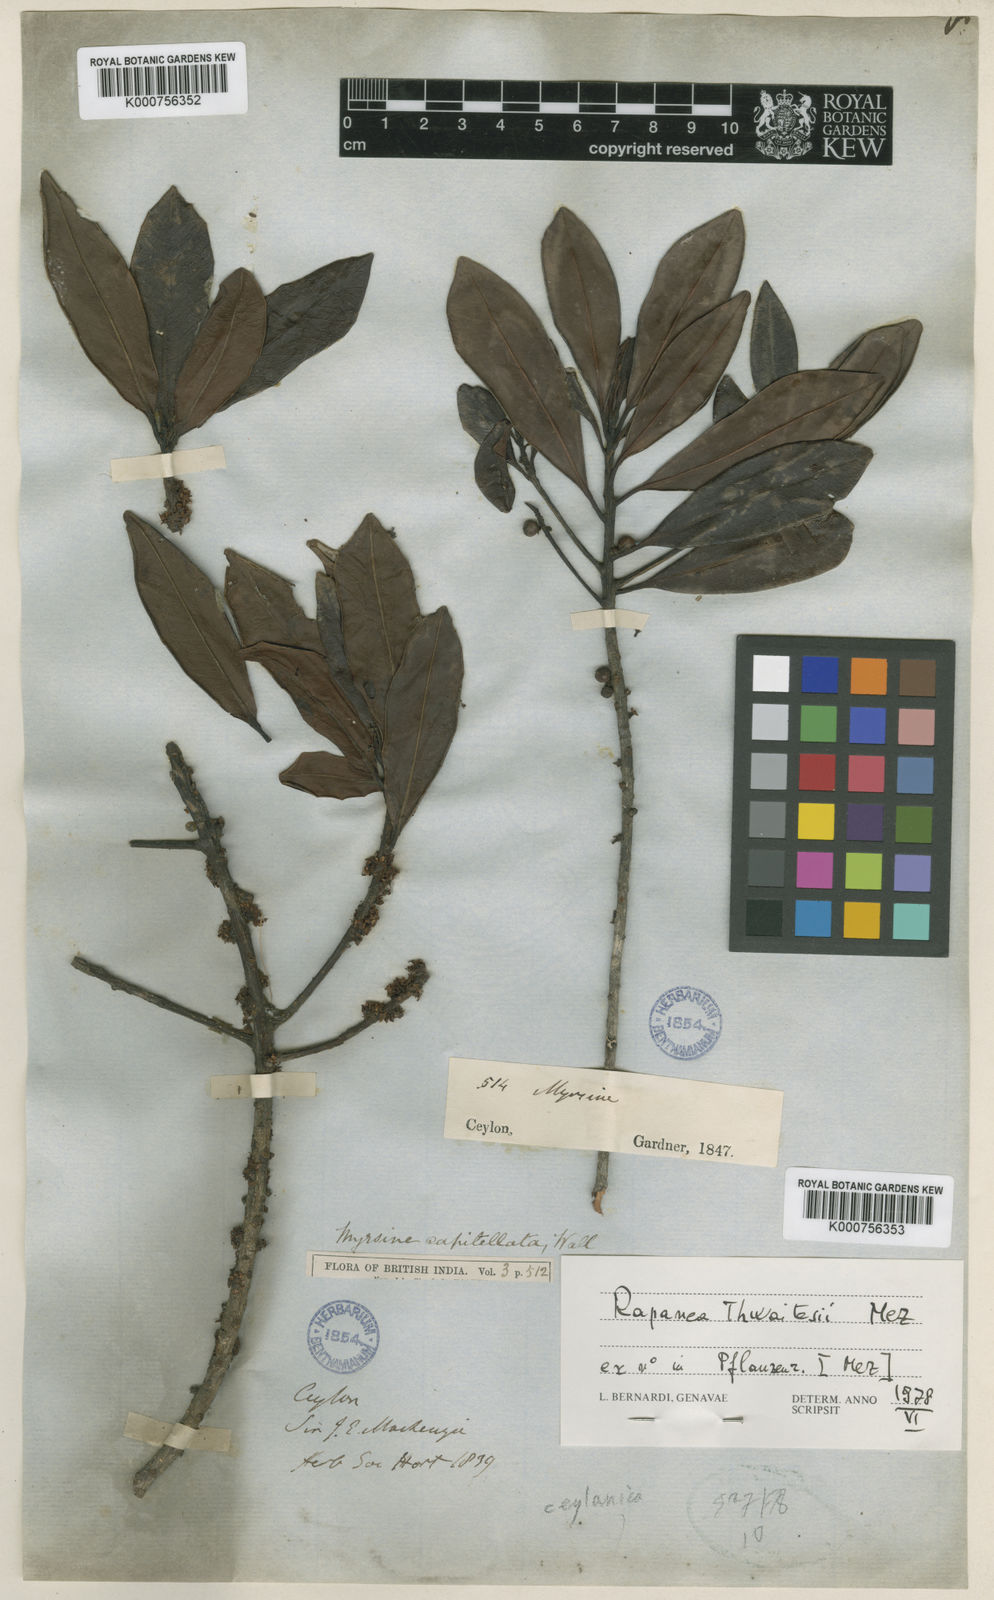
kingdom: Plantae
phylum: Tracheophyta
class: Magnoliopsida
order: Ericales
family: Primulaceae
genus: Myrsine
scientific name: Myrsine thwaitesii
